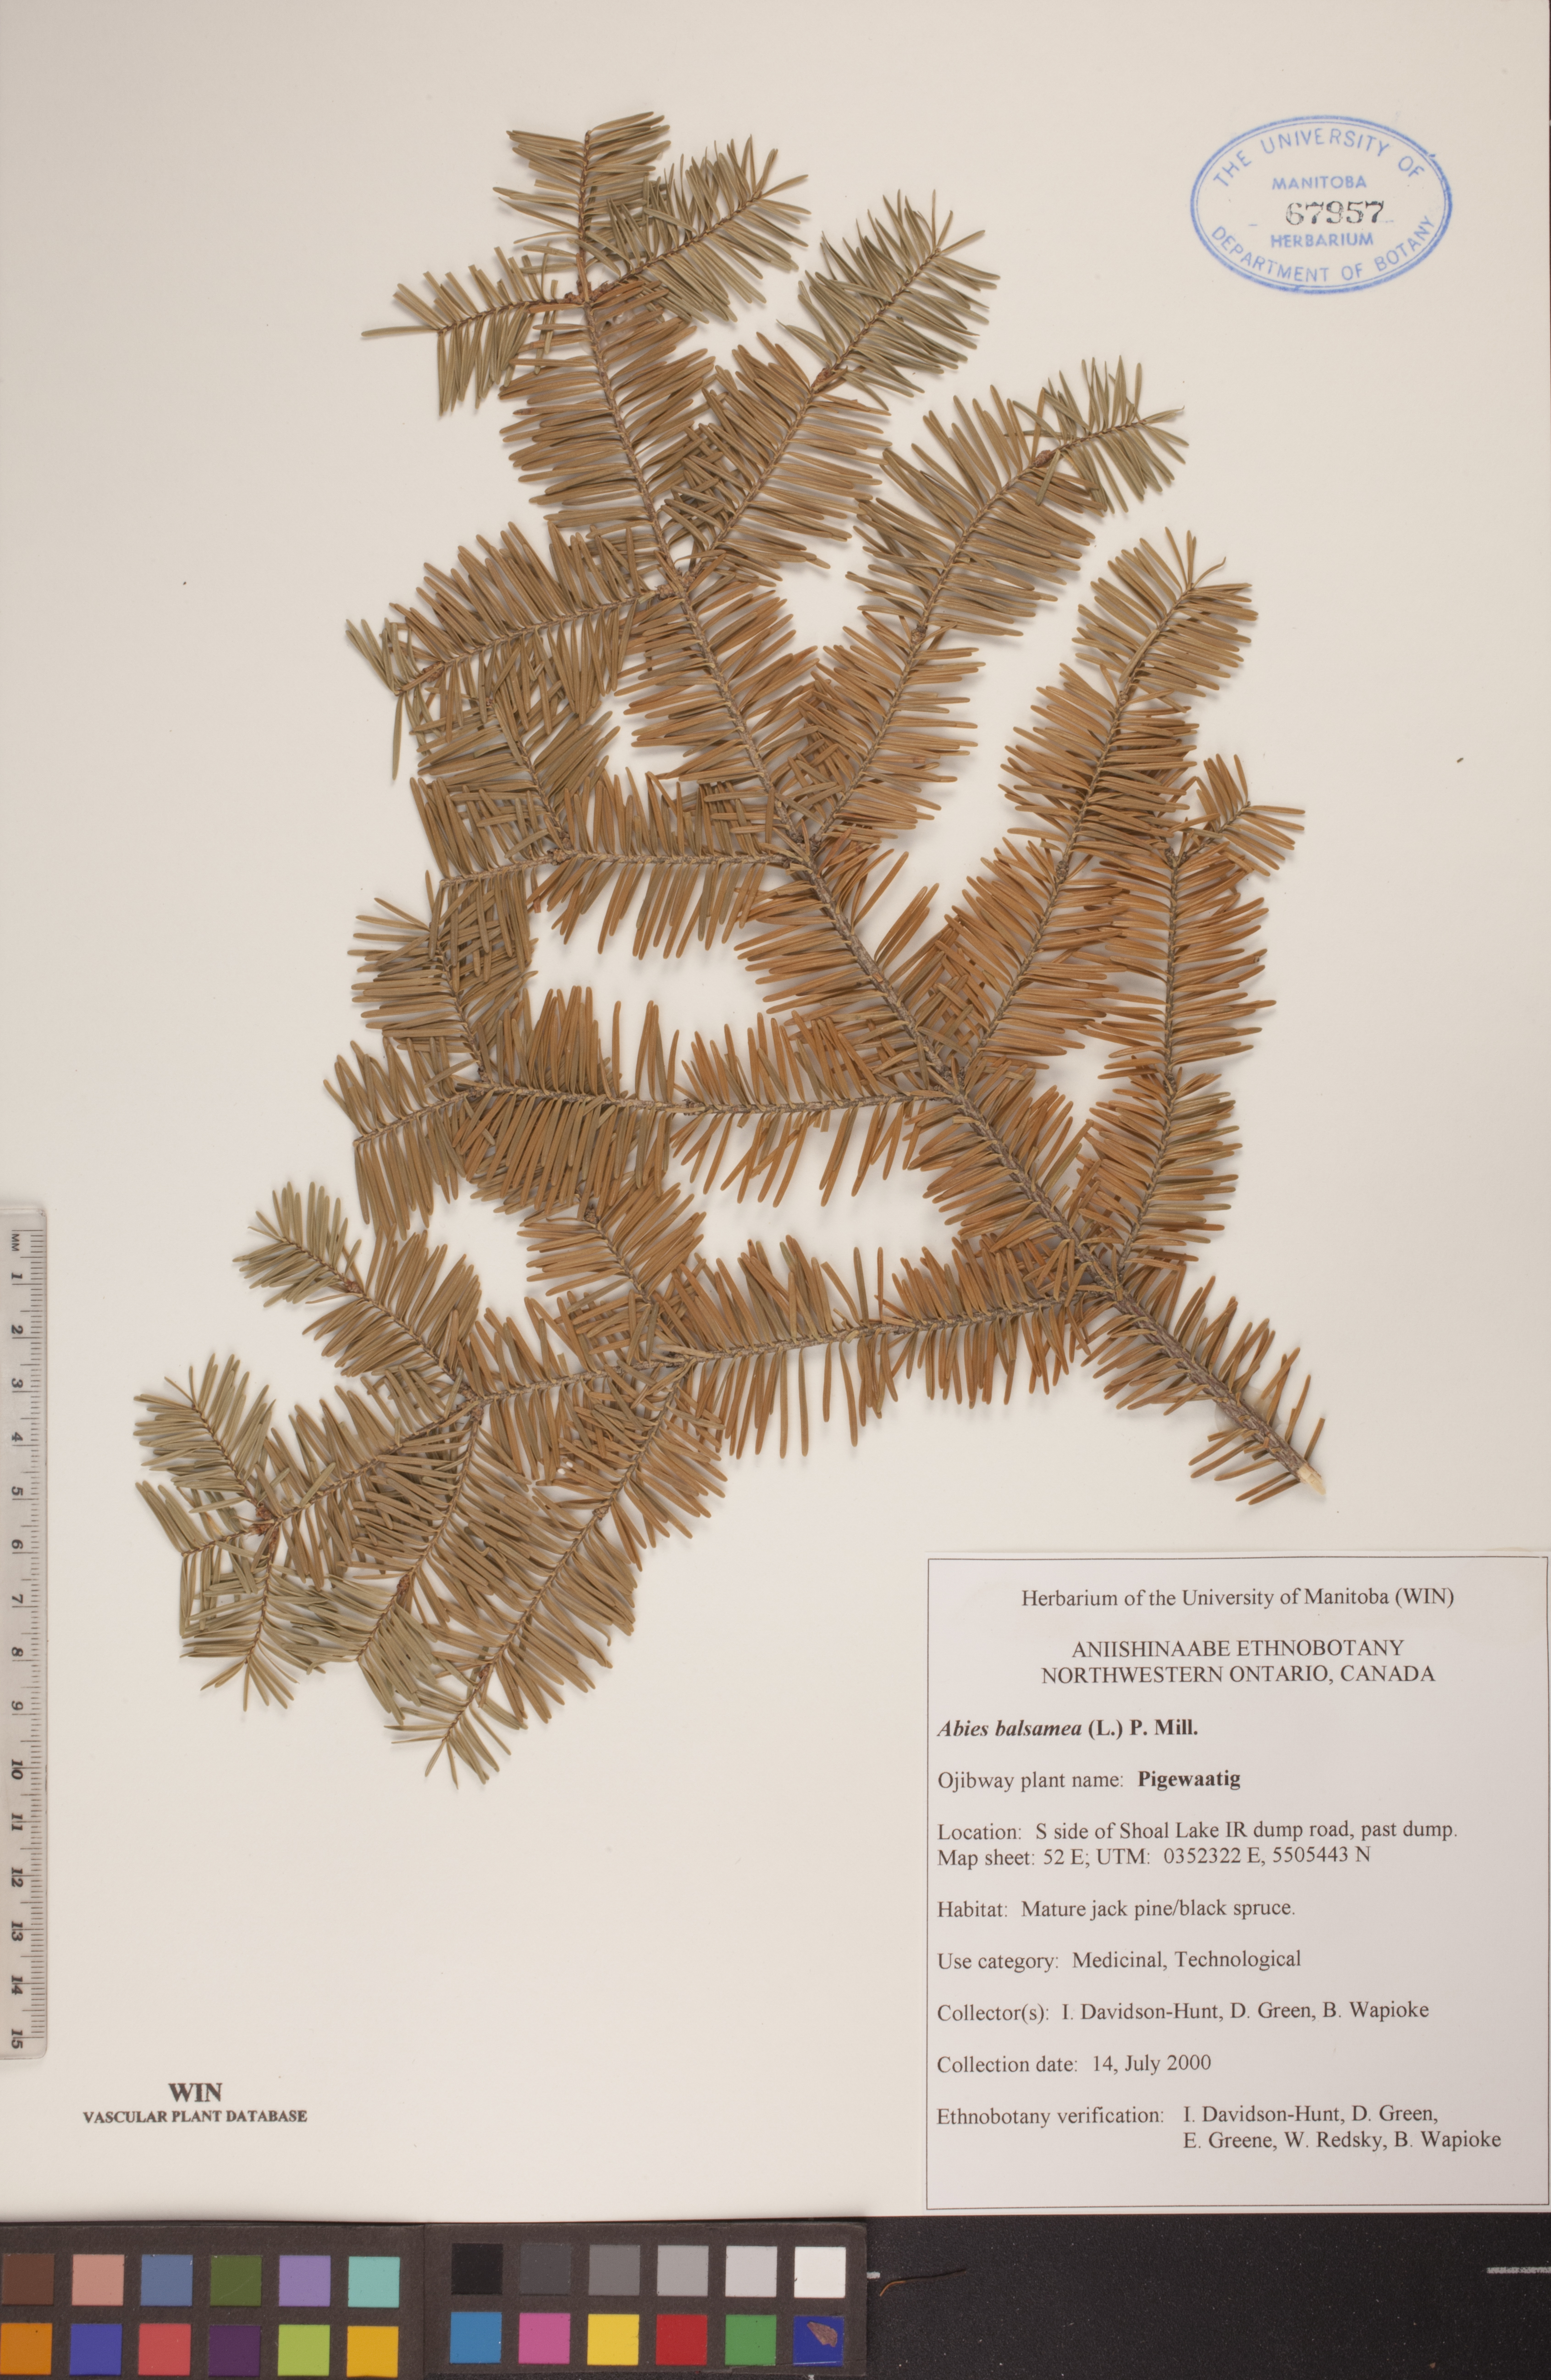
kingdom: Plantae
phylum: Tracheophyta
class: Pinopsida
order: Pinales
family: Pinaceae
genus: Abies
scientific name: Abies balsamea
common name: Balsam fir
